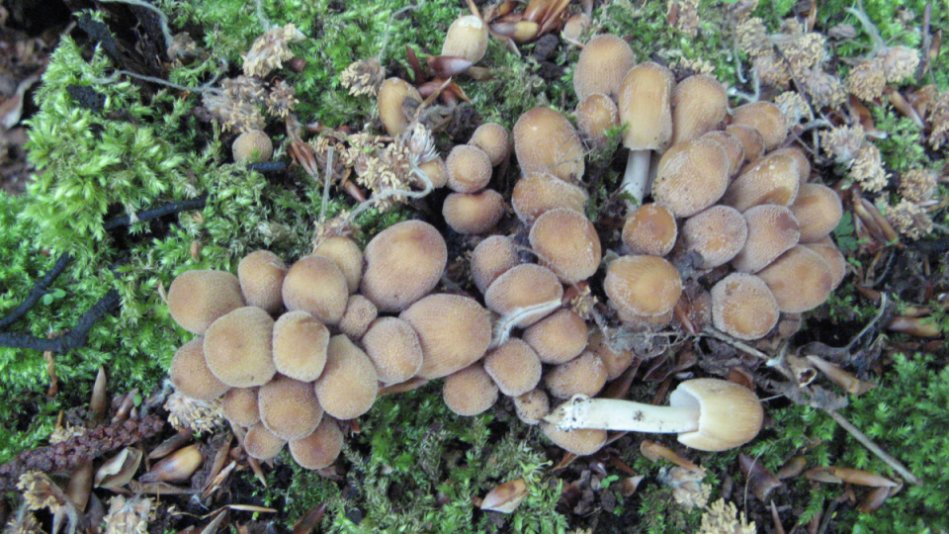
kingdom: Fungi
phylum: Basidiomycota
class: Agaricomycetes
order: Agaricales
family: Psathyrellaceae
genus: Coprinellus
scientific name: Coprinellus micaceus
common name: glimmer-blækhat
